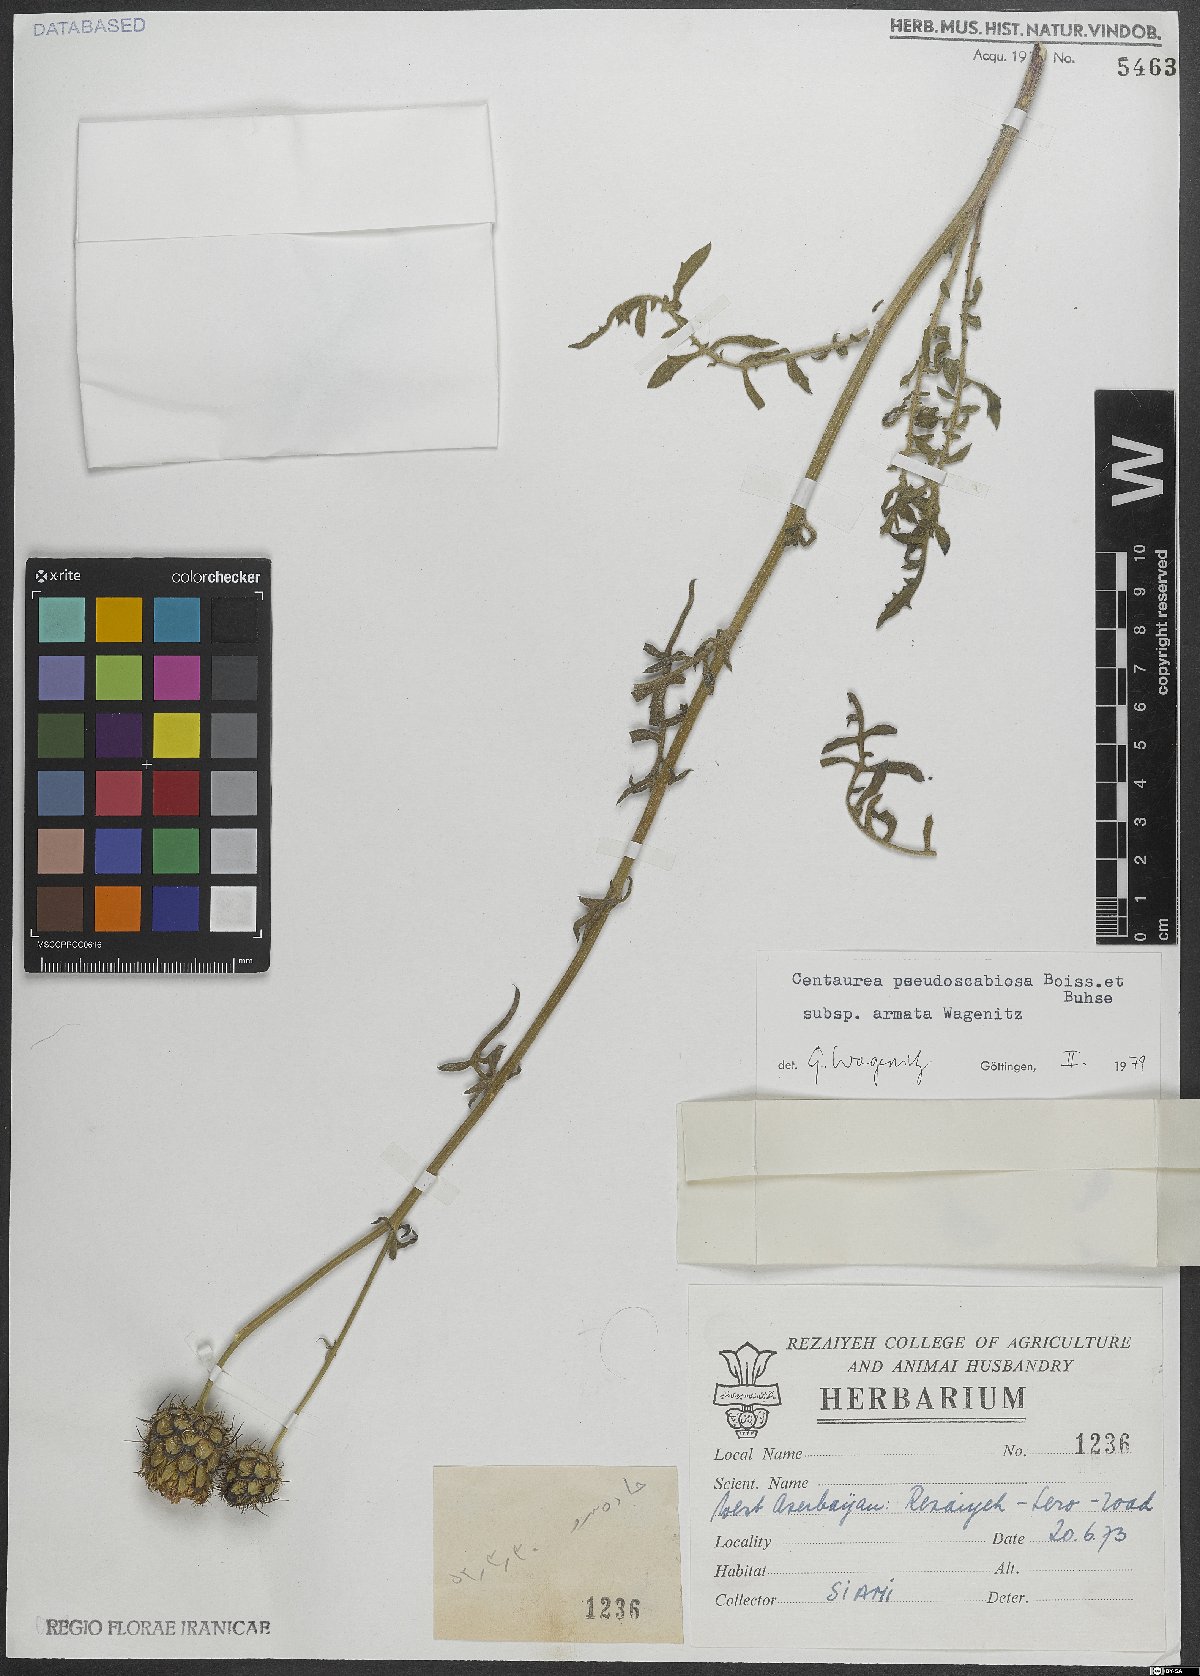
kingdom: Plantae
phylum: Tracheophyta
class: Magnoliopsida
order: Asterales
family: Asteraceae
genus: Centaurea
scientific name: Centaurea pseudoscabiosa
